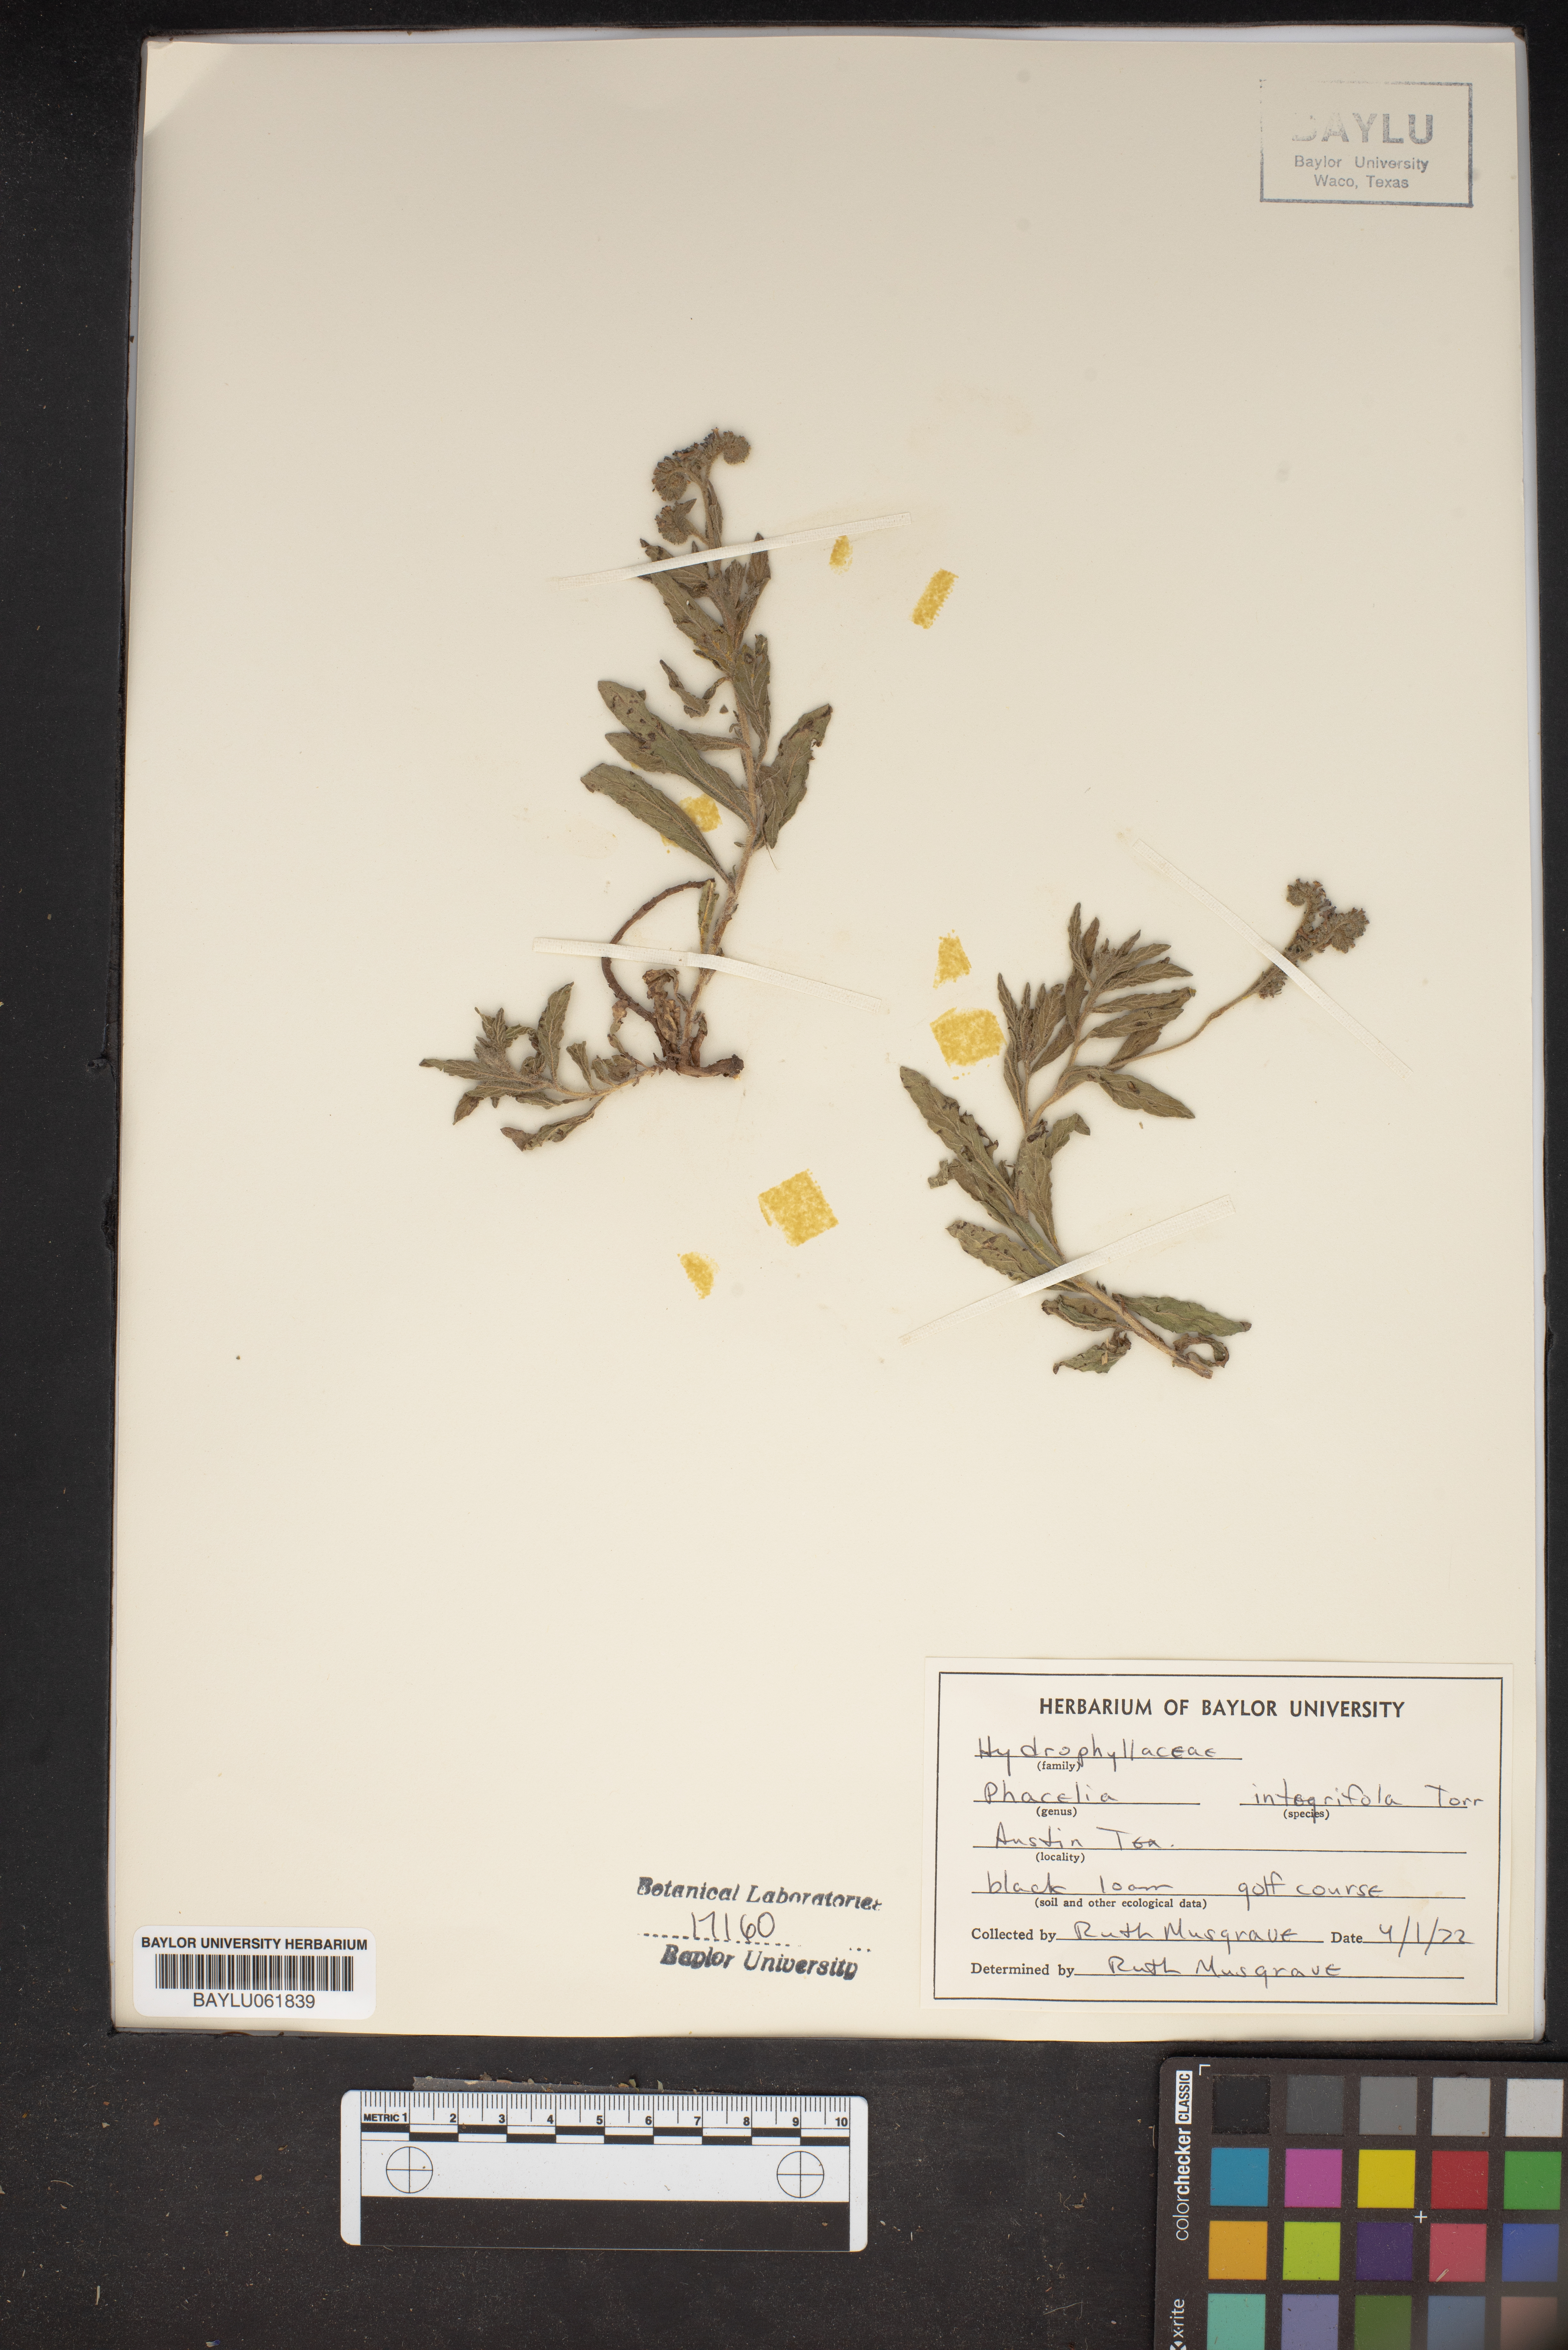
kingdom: Plantae
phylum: Tracheophyta
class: Magnoliopsida
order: Boraginales
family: Hydrophyllaceae
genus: Phacelia
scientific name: Phacelia integrifolia
